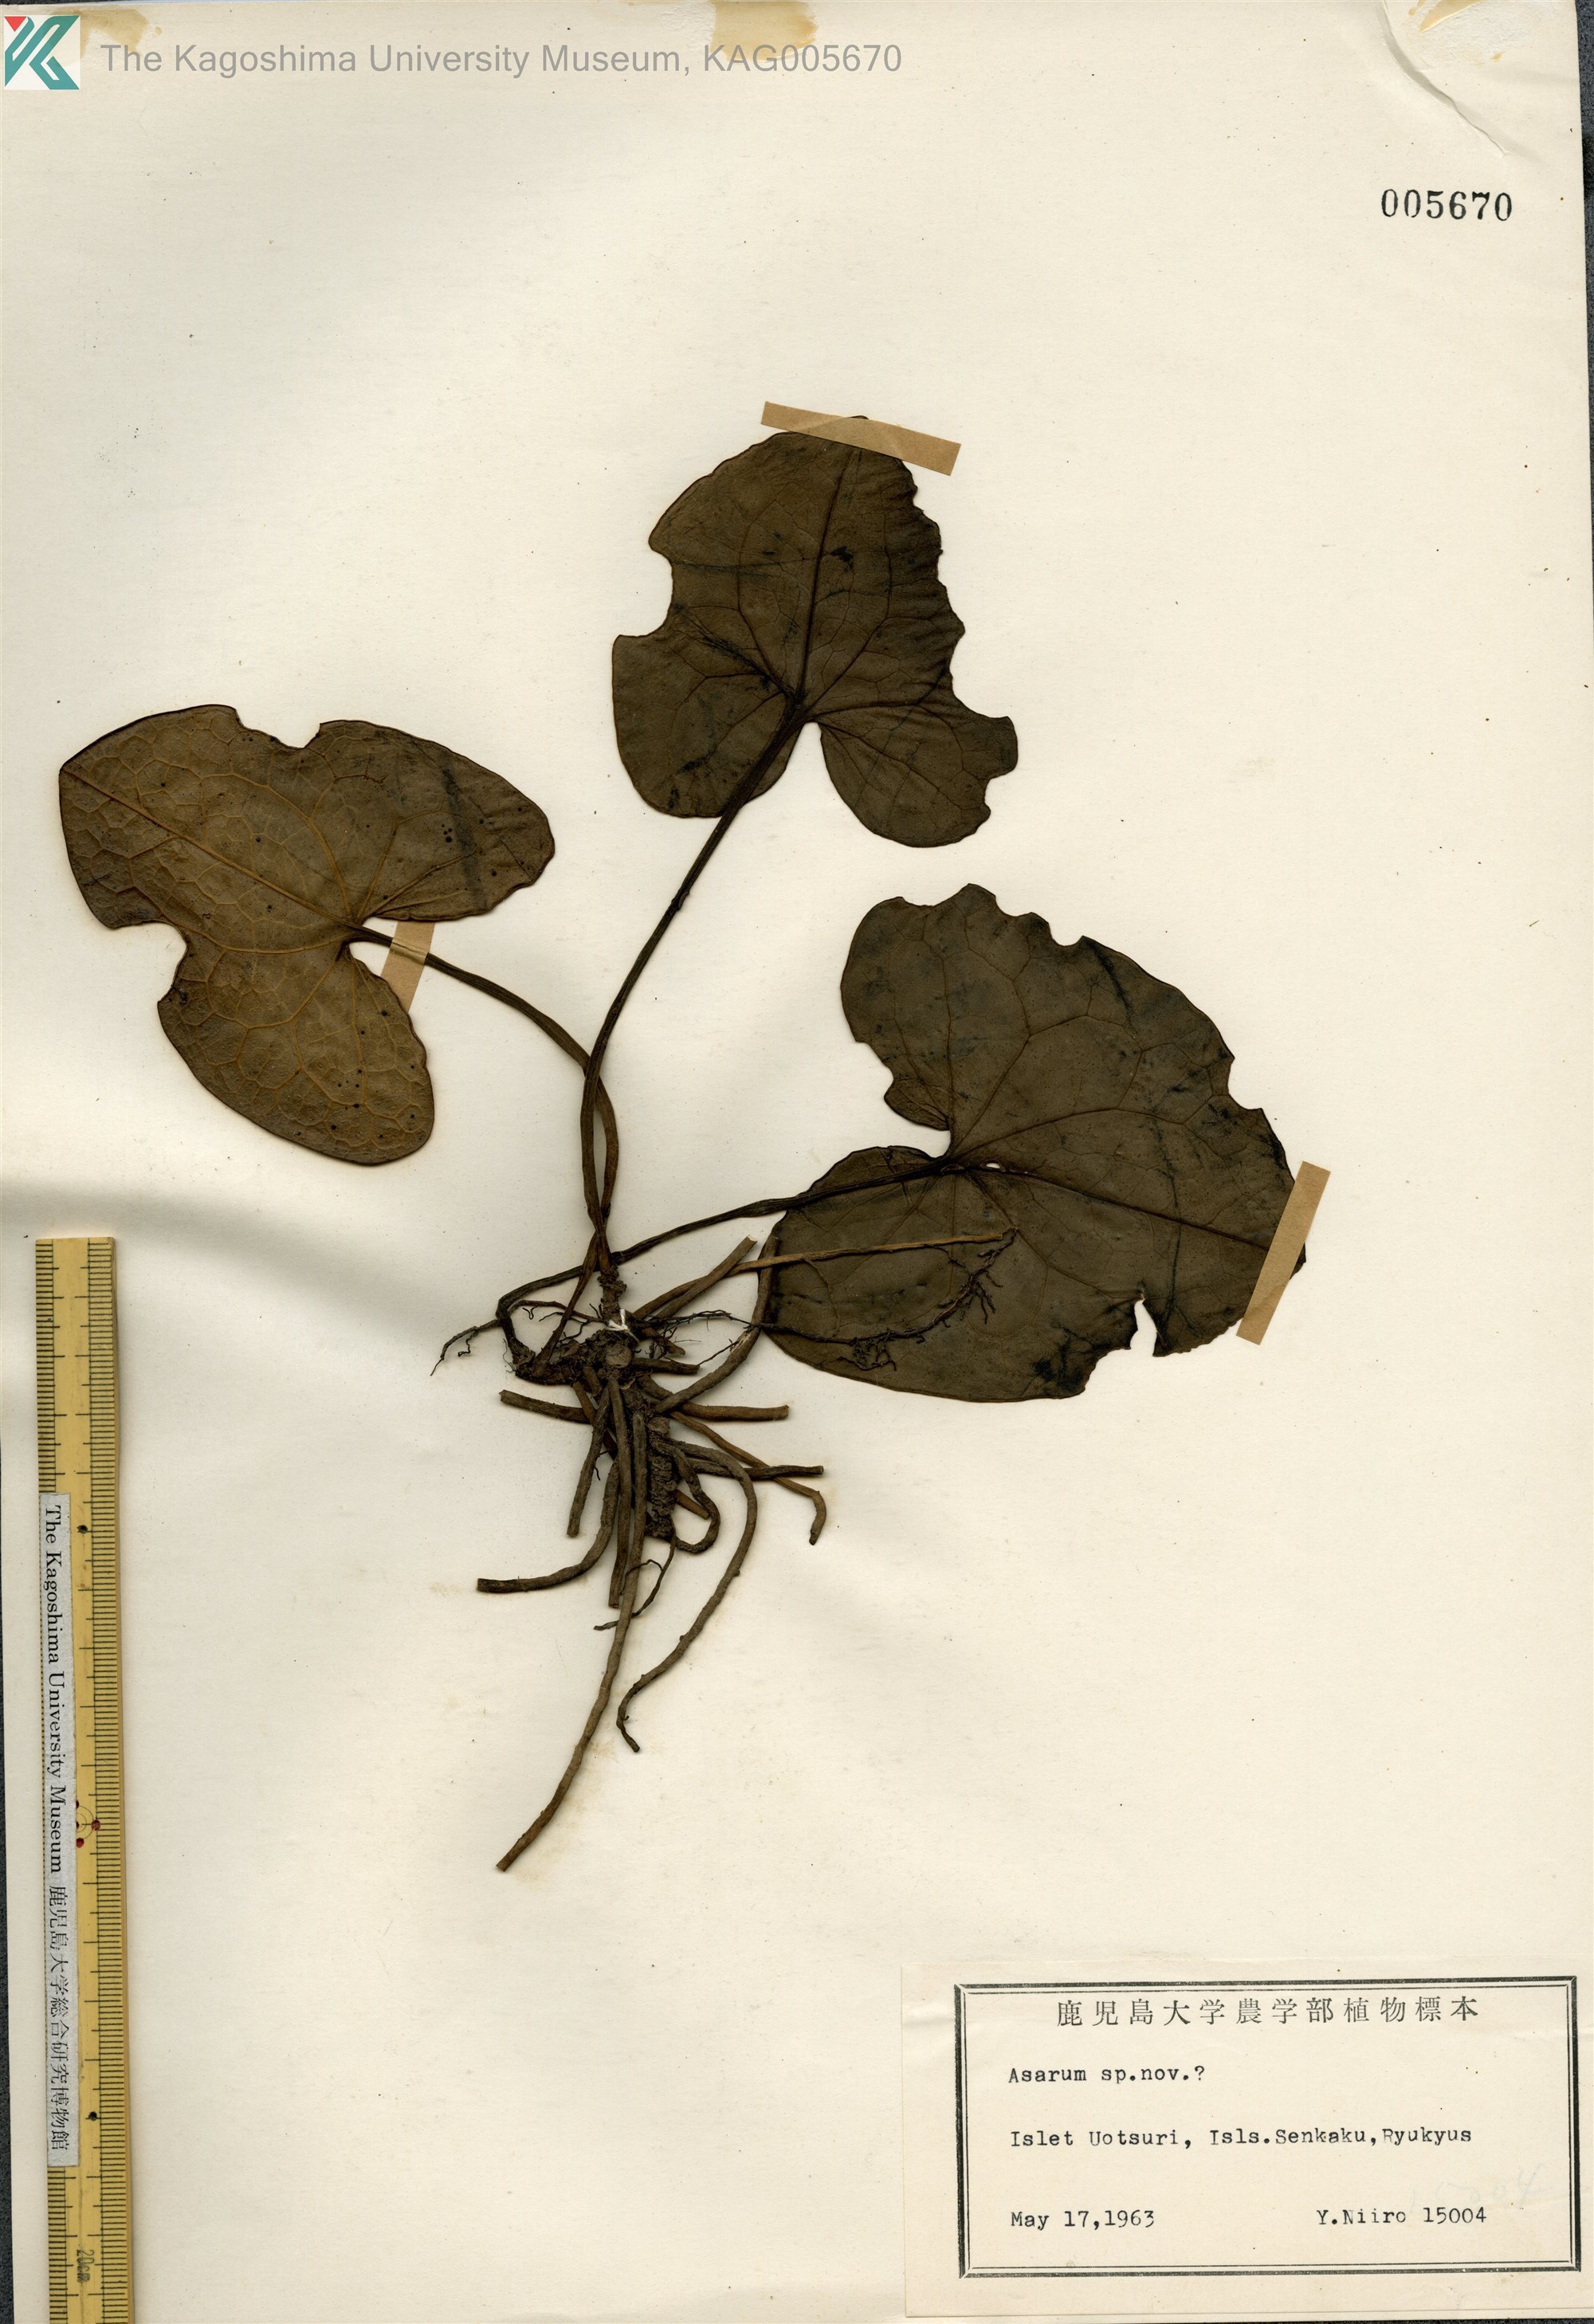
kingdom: Plantae
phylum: Tracheophyta
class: Magnoliopsida
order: Piperales
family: Aristolochiaceae
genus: Asarum
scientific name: Asarum senkakuinsulare
